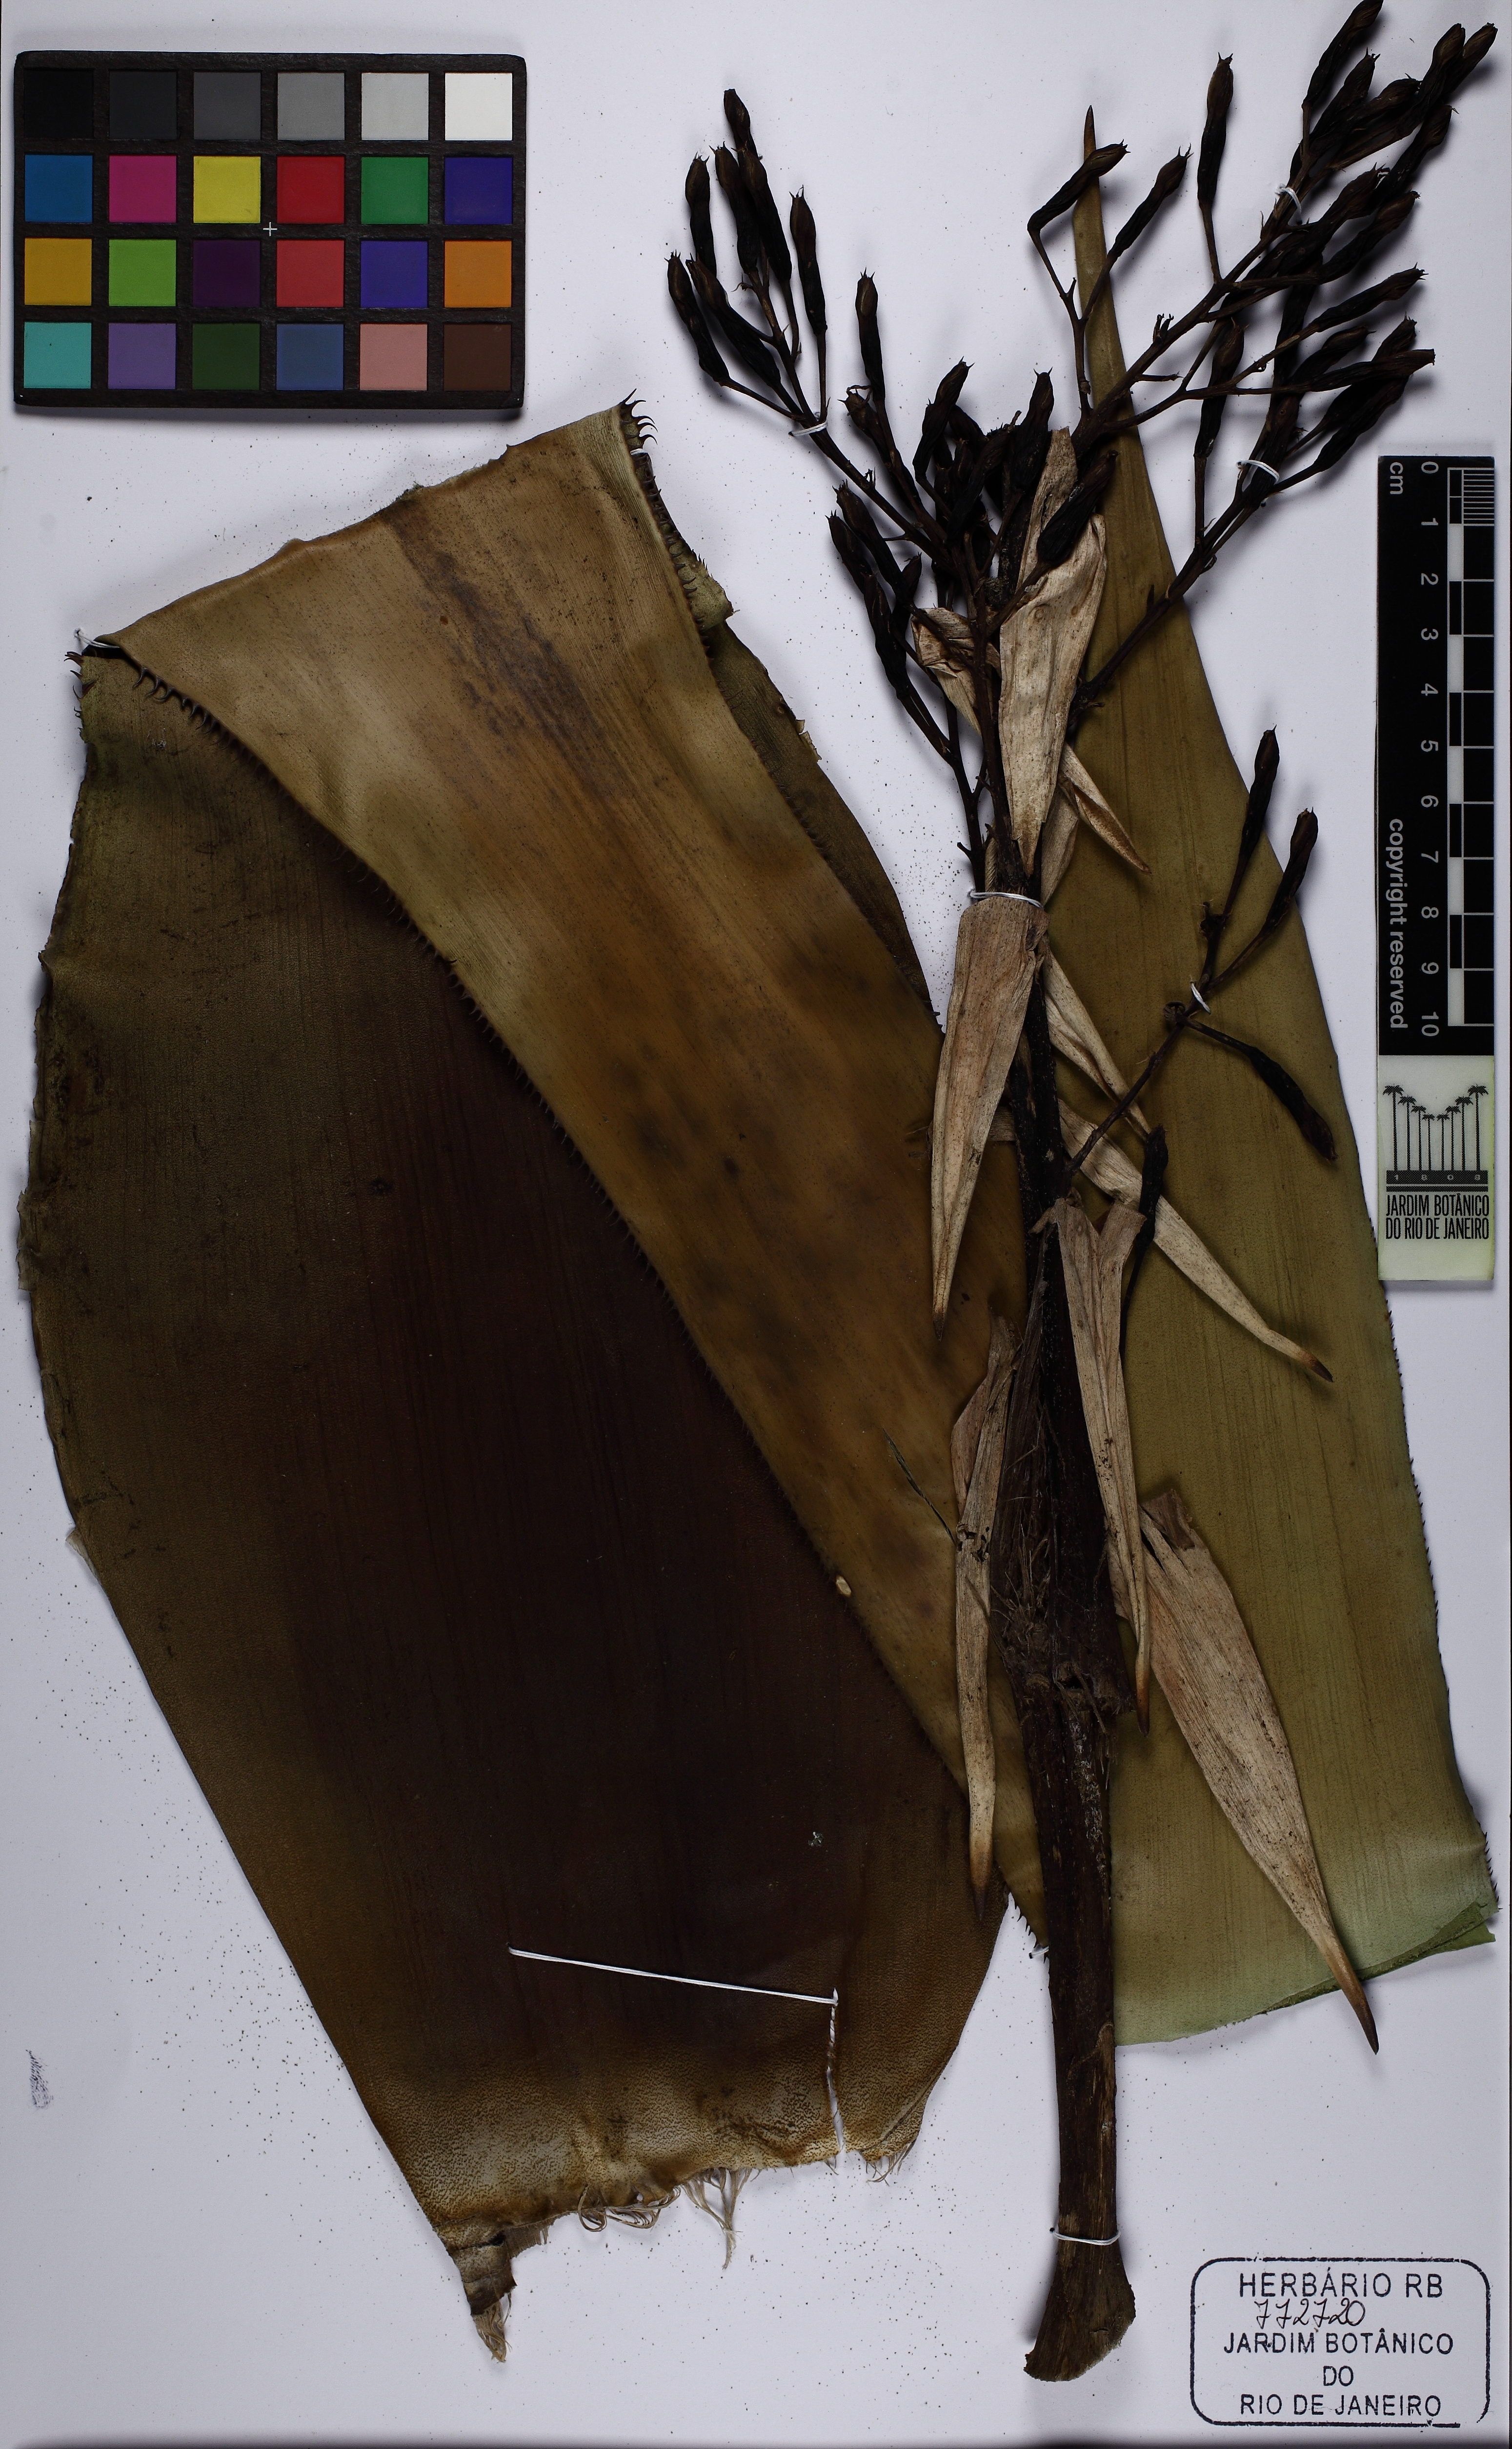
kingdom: Plantae
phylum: Tracheophyta
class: Liliopsida
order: Poales
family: Bromeliaceae
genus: Portea
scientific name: Portea petropolitana
